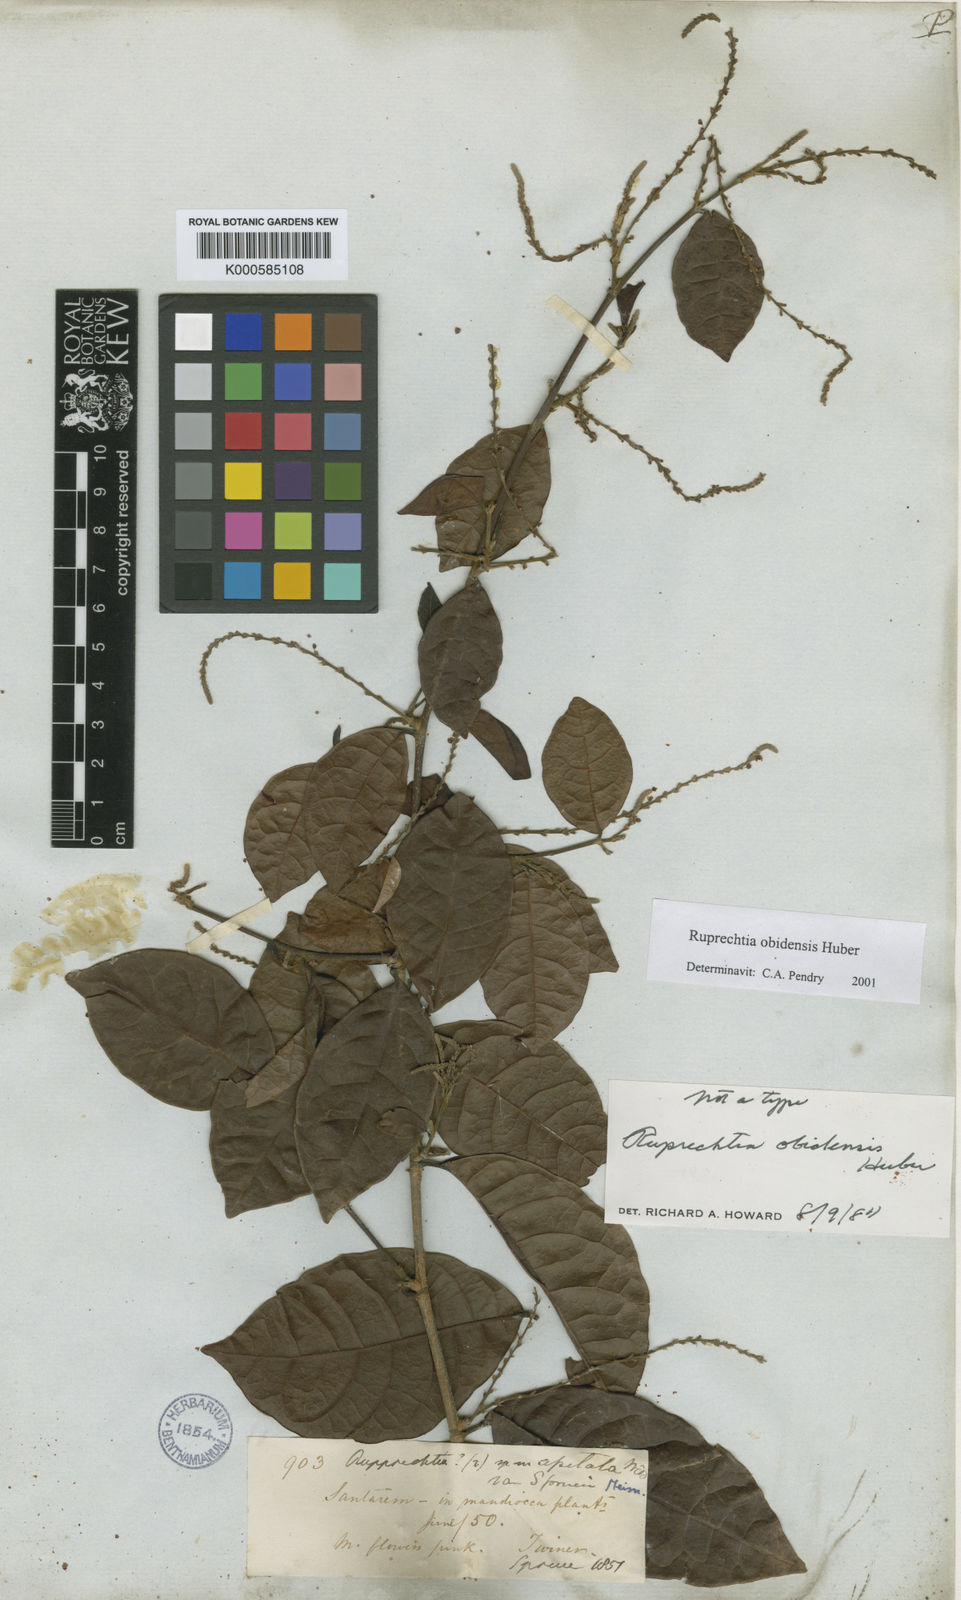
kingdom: Plantae
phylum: Tracheophyta
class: Magnoliopsida
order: Caryophyllales
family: Polygonaceae
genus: Ruprechtia
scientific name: Ruprechtia scandens
